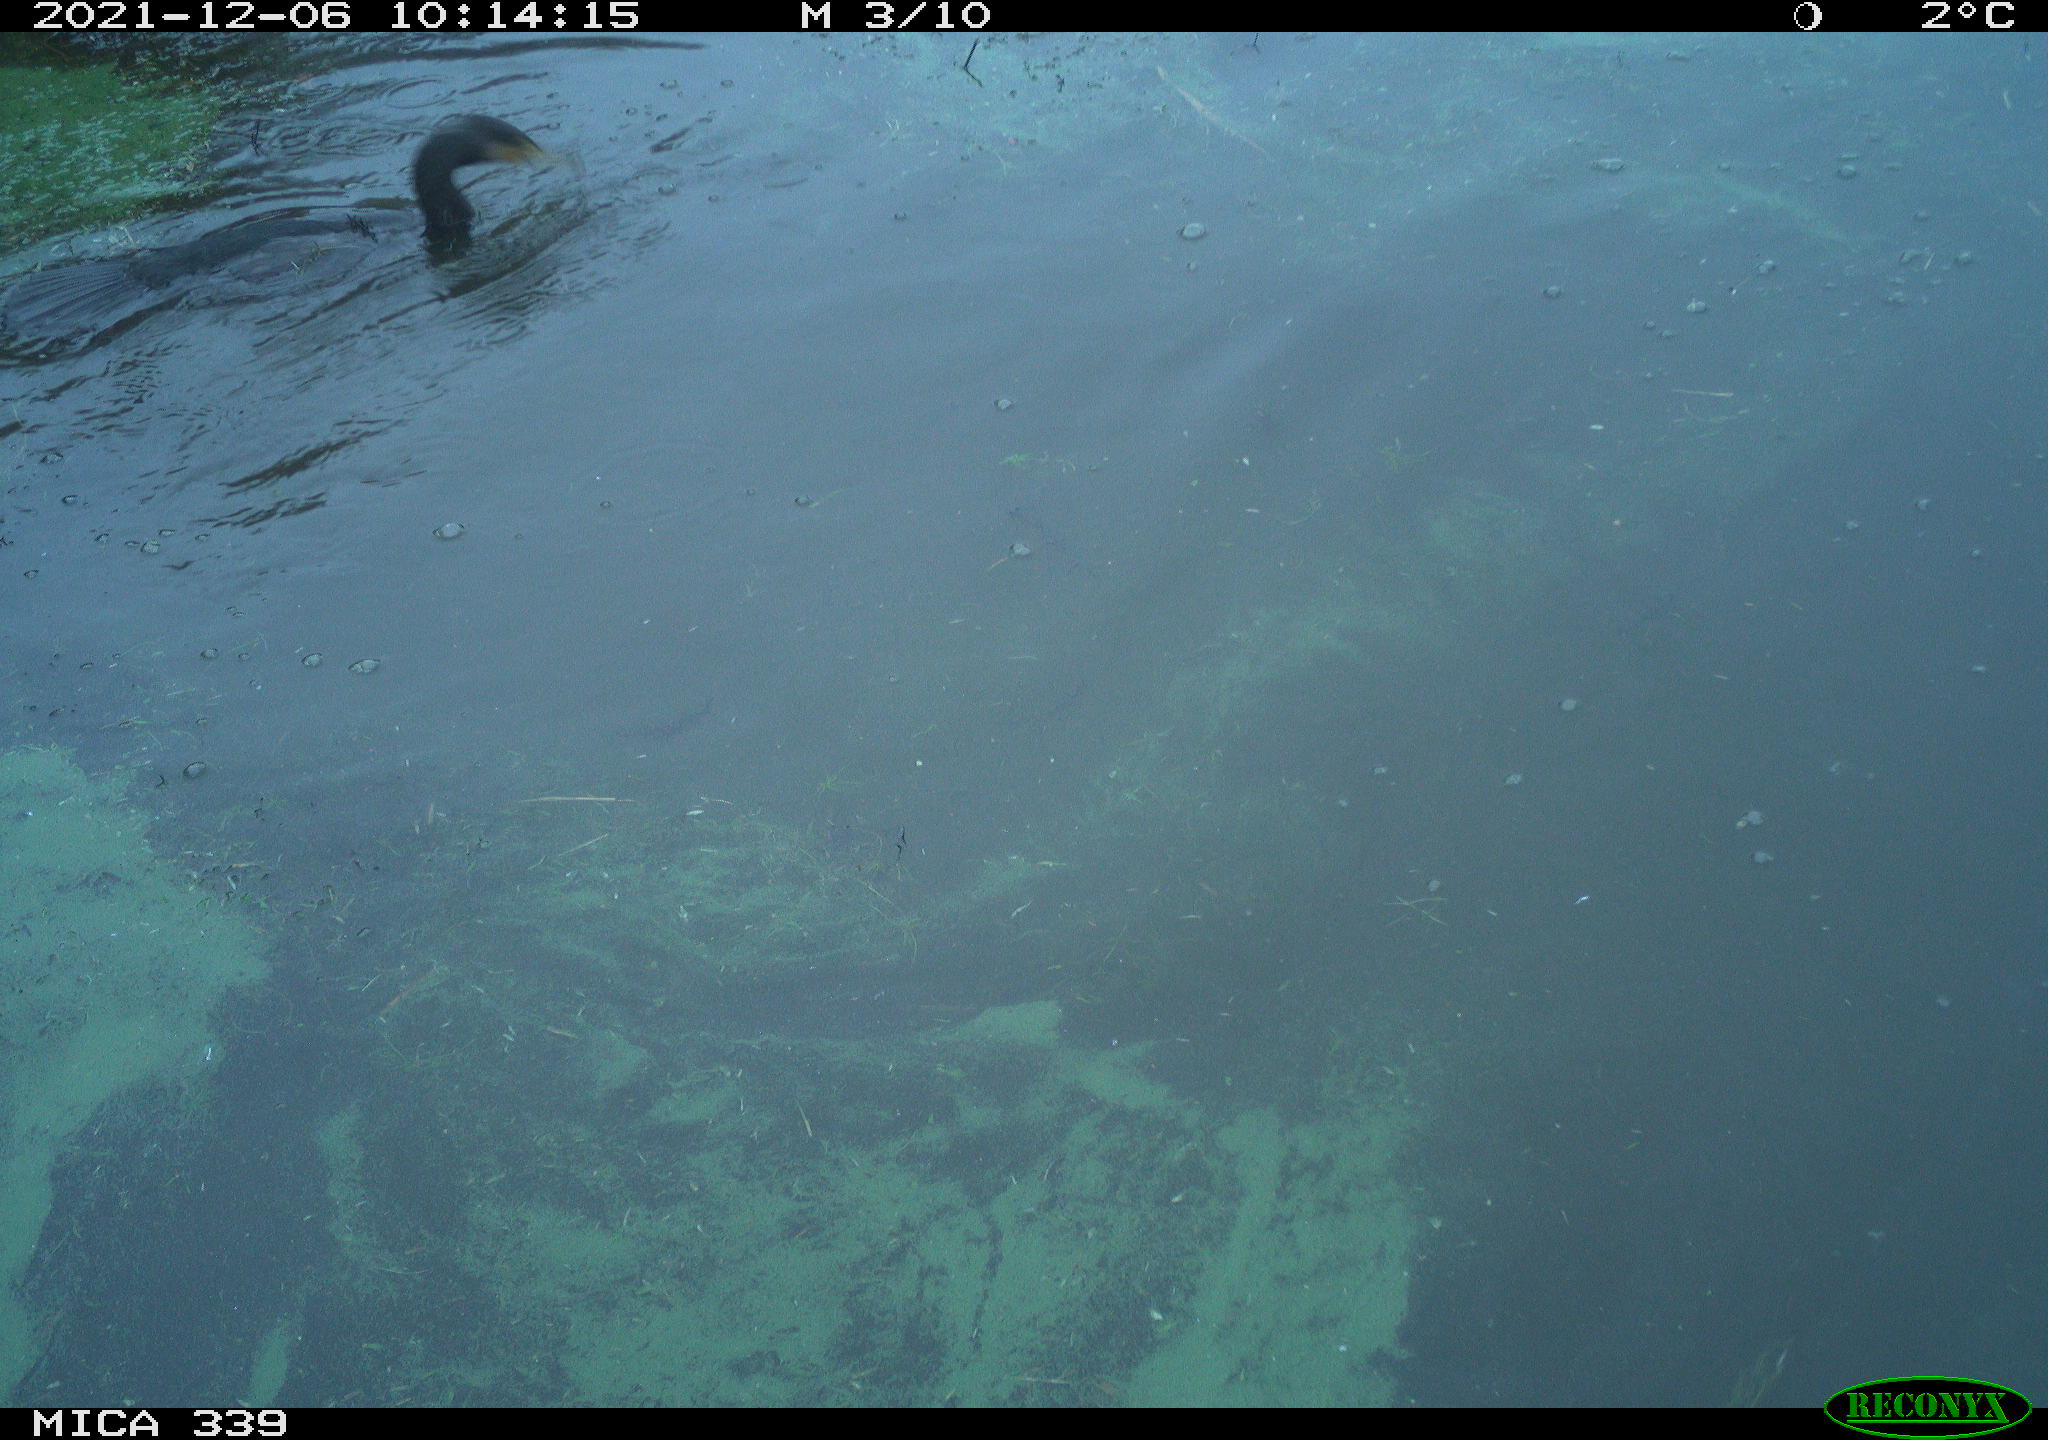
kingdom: Animalia
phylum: Chordata
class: Aves
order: Gruiformes
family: Rallidae
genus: Fulica
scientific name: Fulica atra
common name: Eurasian coot
